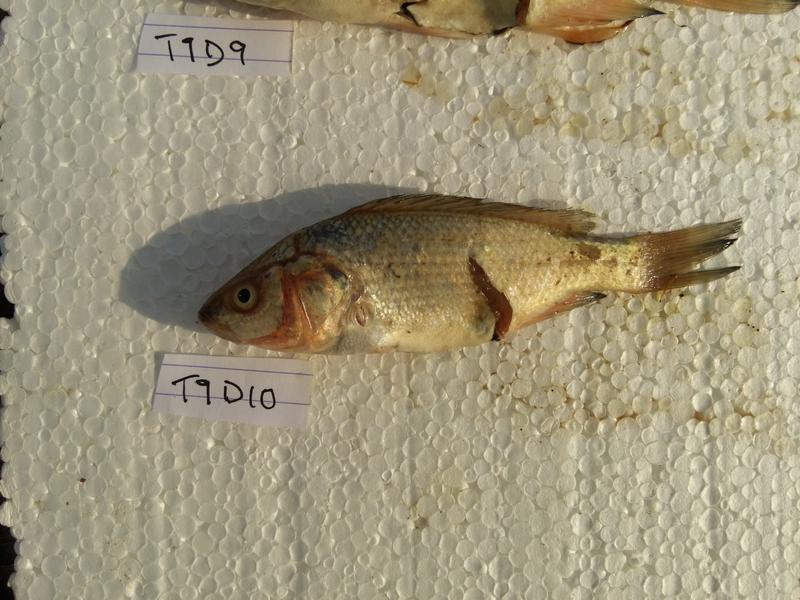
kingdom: Animalia
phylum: Chordata
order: Perciformes
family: Cichlidae
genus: Oreochromis
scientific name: Oreochromis amphimelas
